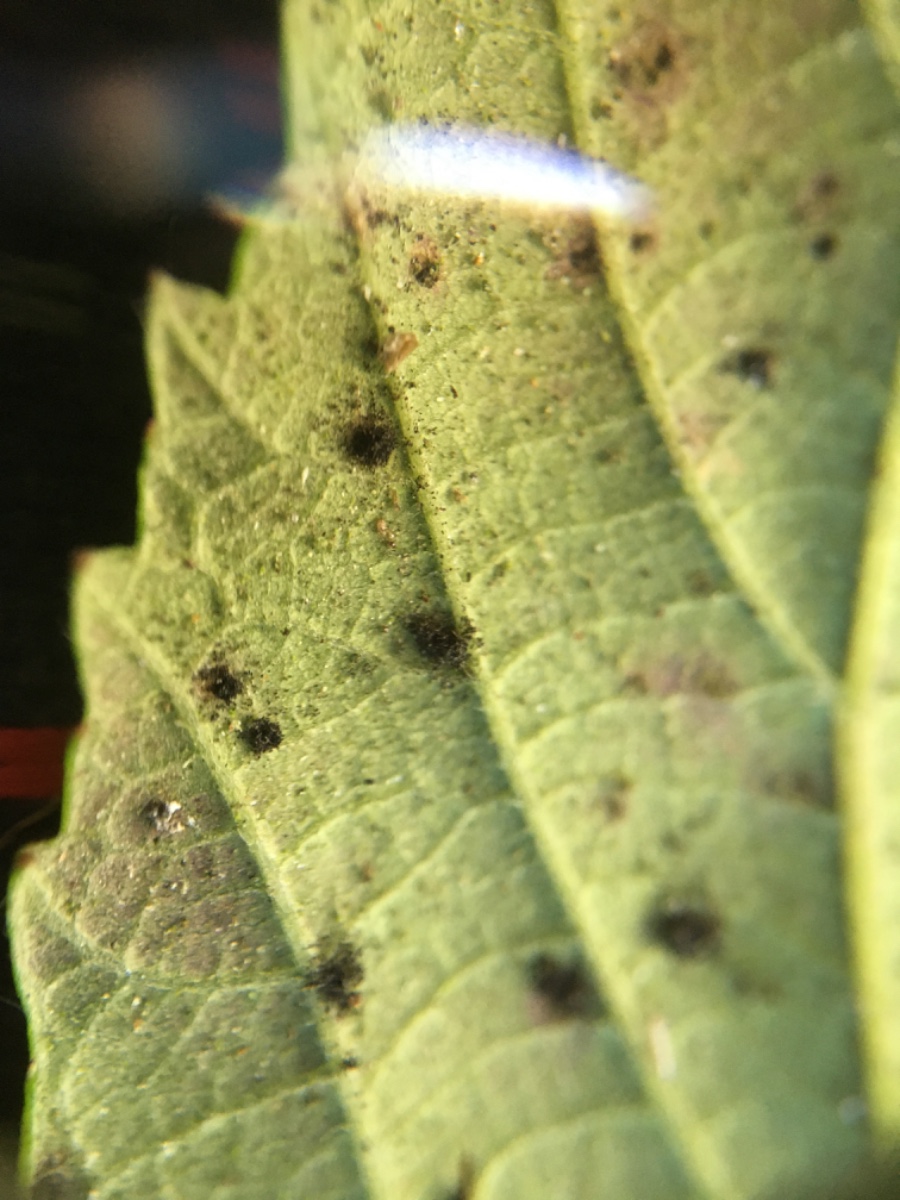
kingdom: Fungi
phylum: Basidiomycota
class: Pucciniomycetes
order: Pucciniales
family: Phragmidiaceae
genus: Phragmidium
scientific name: Phragmidium violaceum
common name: violet flercellerust
